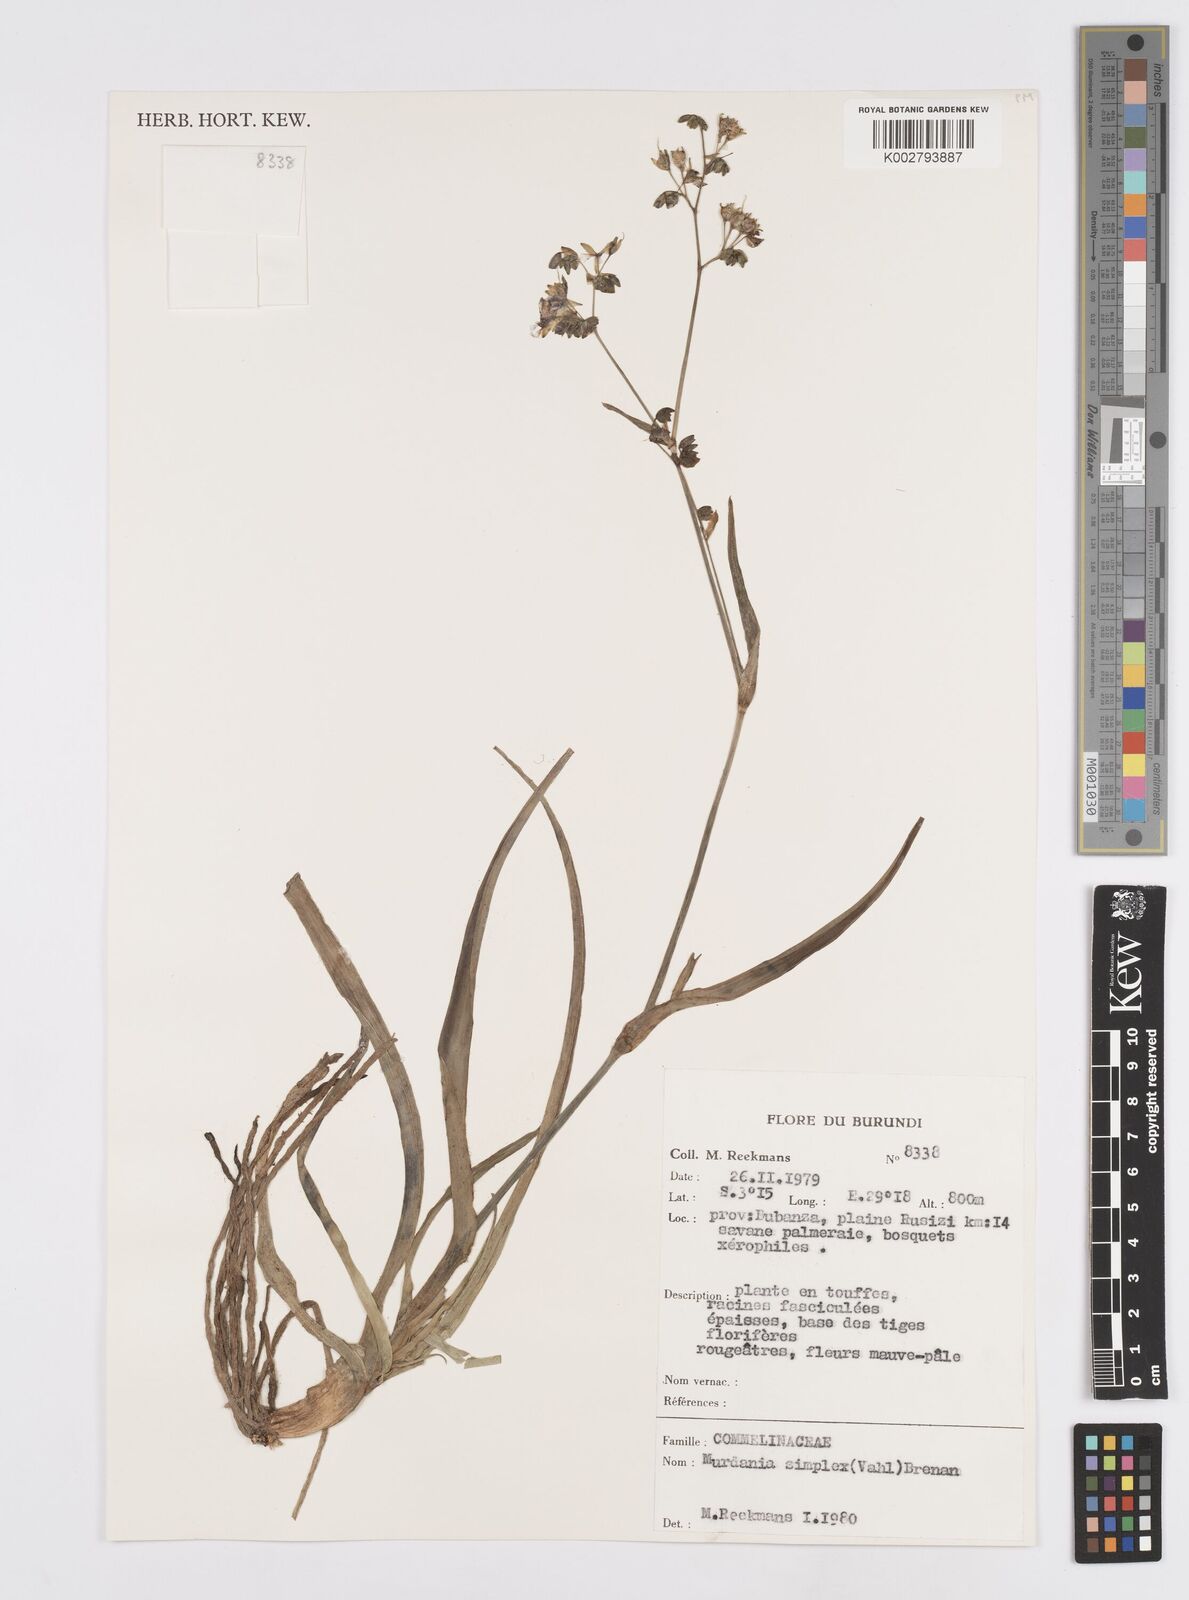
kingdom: Plantae
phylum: Tracheophyta
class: Liliopsida
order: Commelinales
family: Commelinaceae
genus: Murdannia
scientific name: Murdannia simplex
